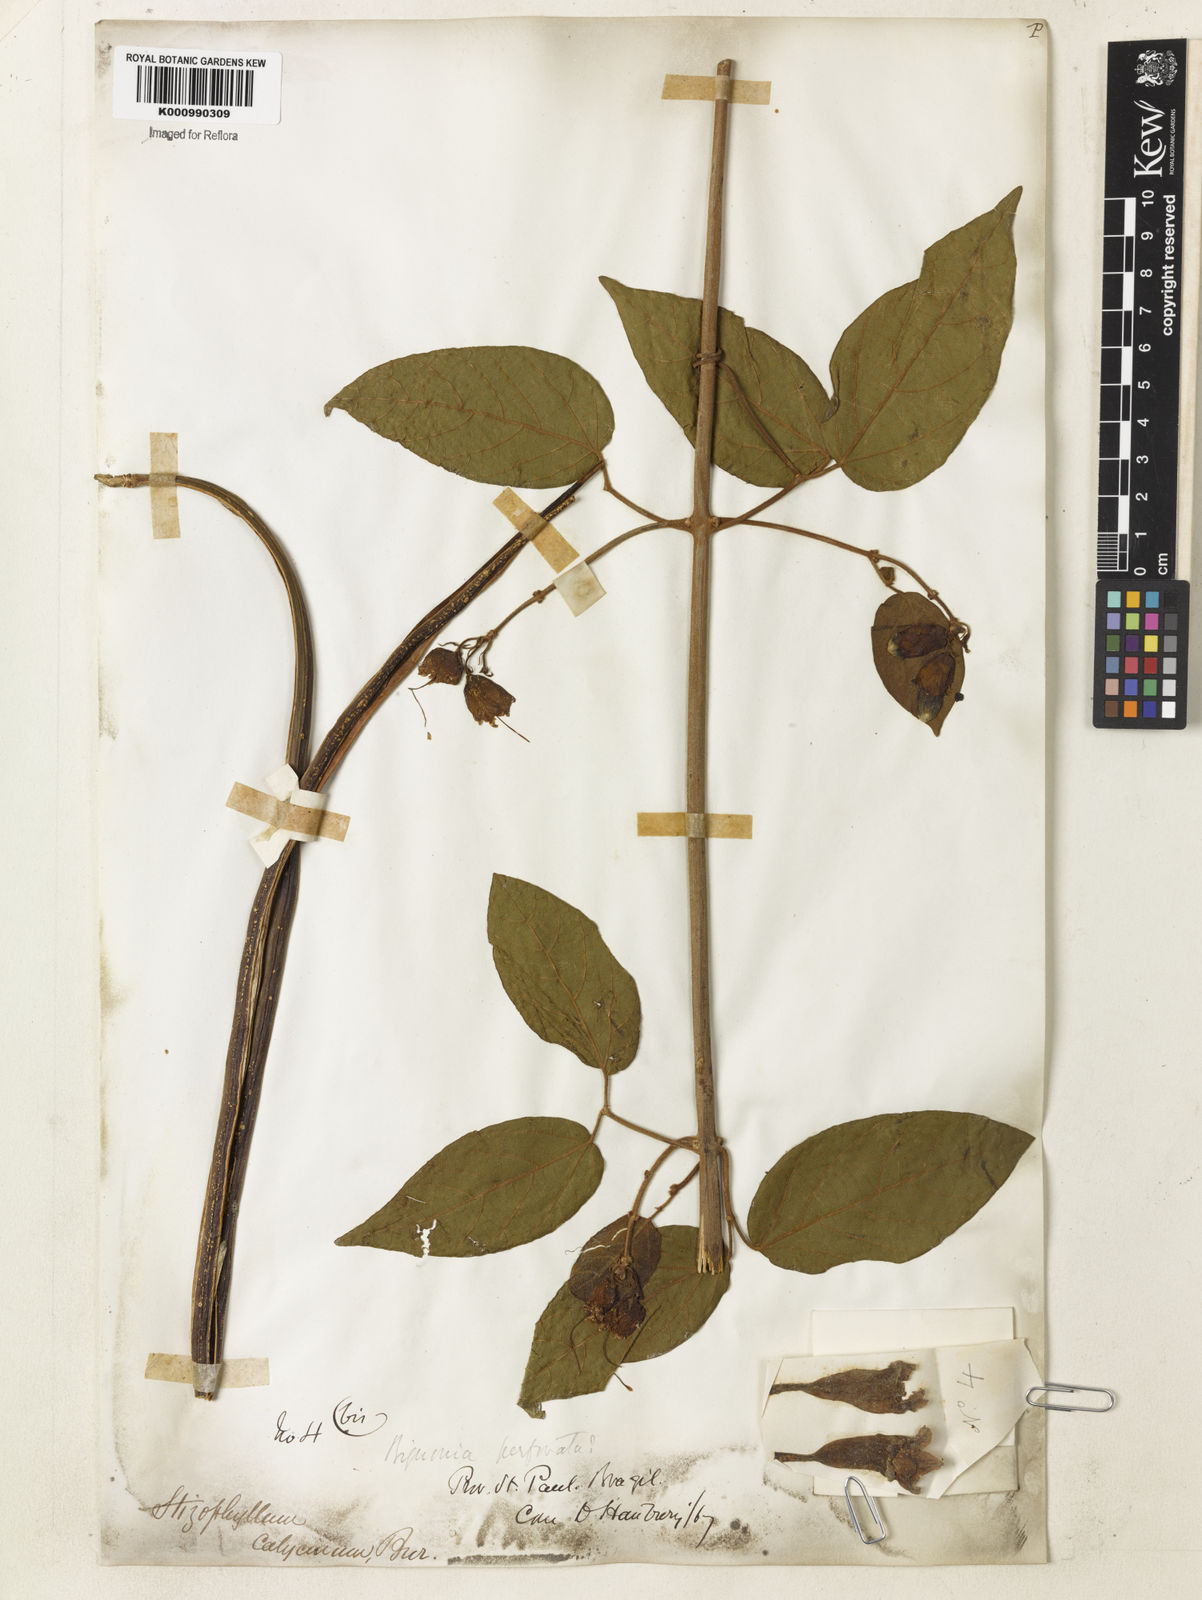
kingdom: Plantae
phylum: Tracheophyta
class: Magnoliopsida
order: Lamiales
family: Bignoniaceae
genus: Stizophyllum
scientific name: Stizophyllum perforatum
